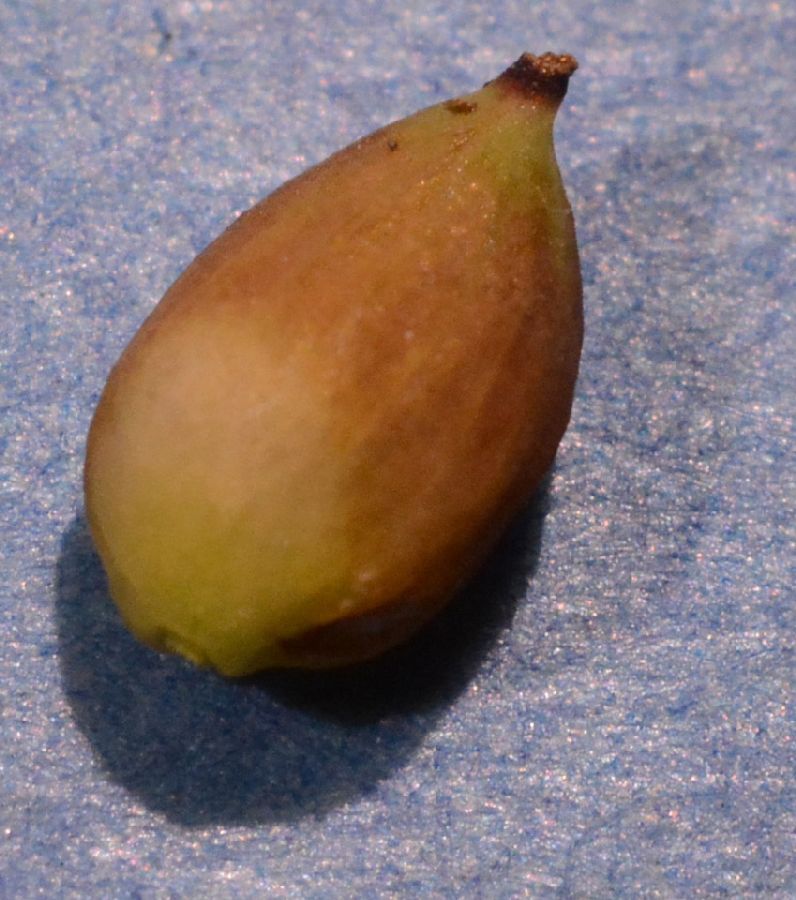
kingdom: Plantae
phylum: Tracheophyta
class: Liliopsida
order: Poales
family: Cyperaceae
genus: Carex
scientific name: Carex panicea
